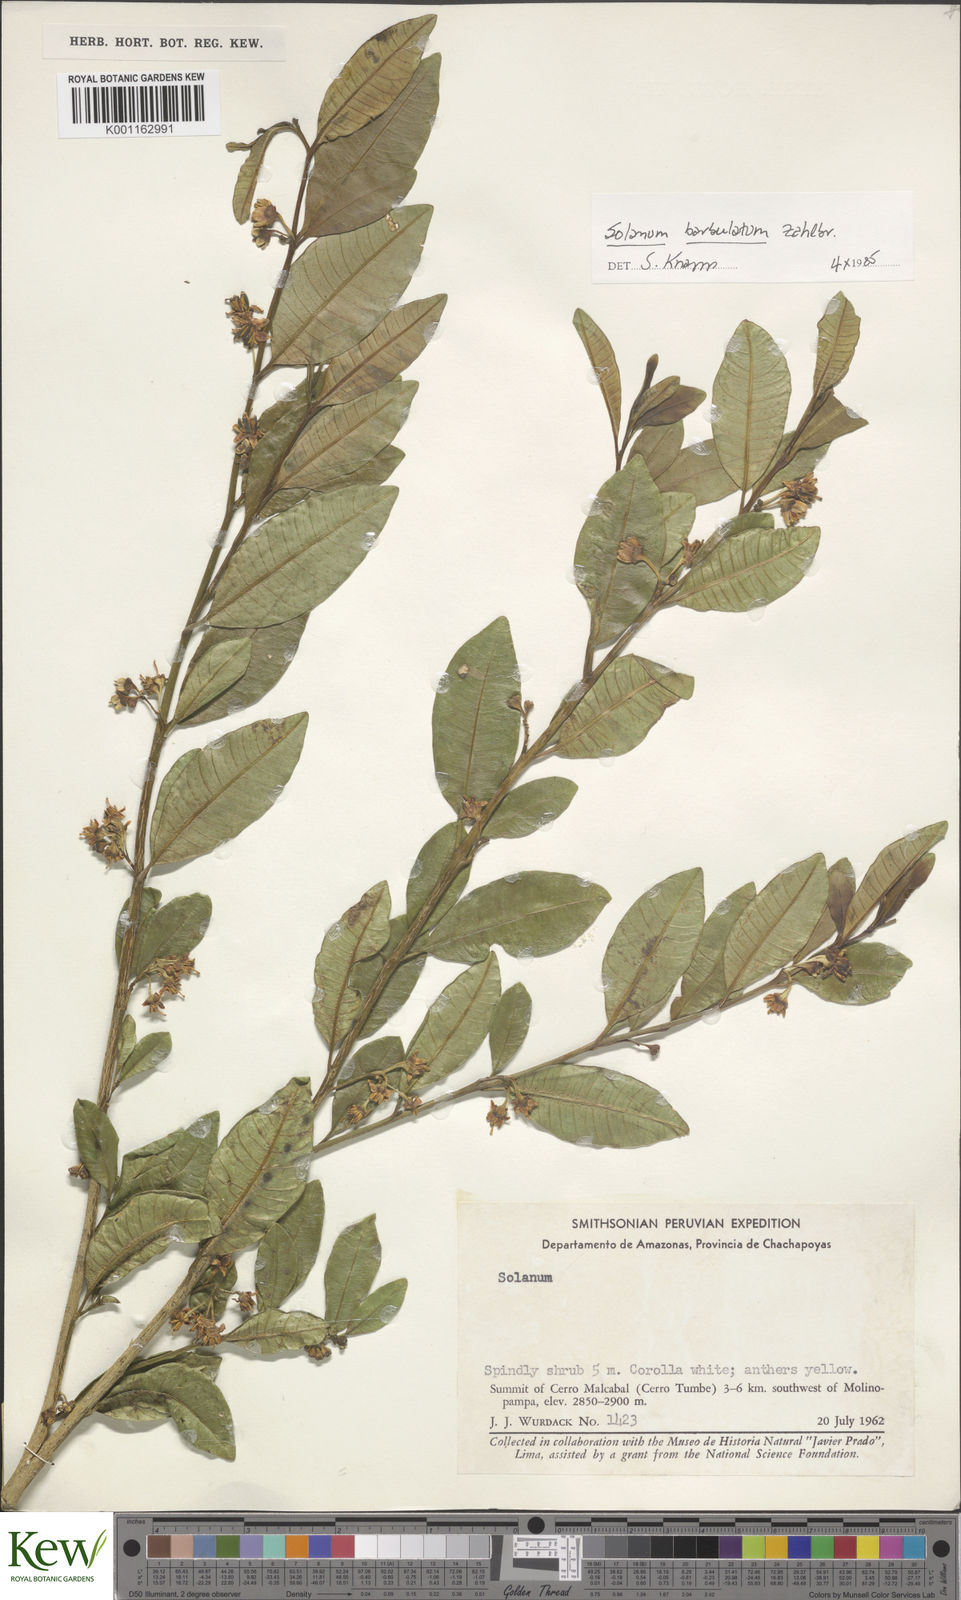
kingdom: Plantae
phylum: Tracheophyta
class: Magnoliopsida
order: Solanales
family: Solanaceae
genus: Solanum
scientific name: Solanum barbulatum
